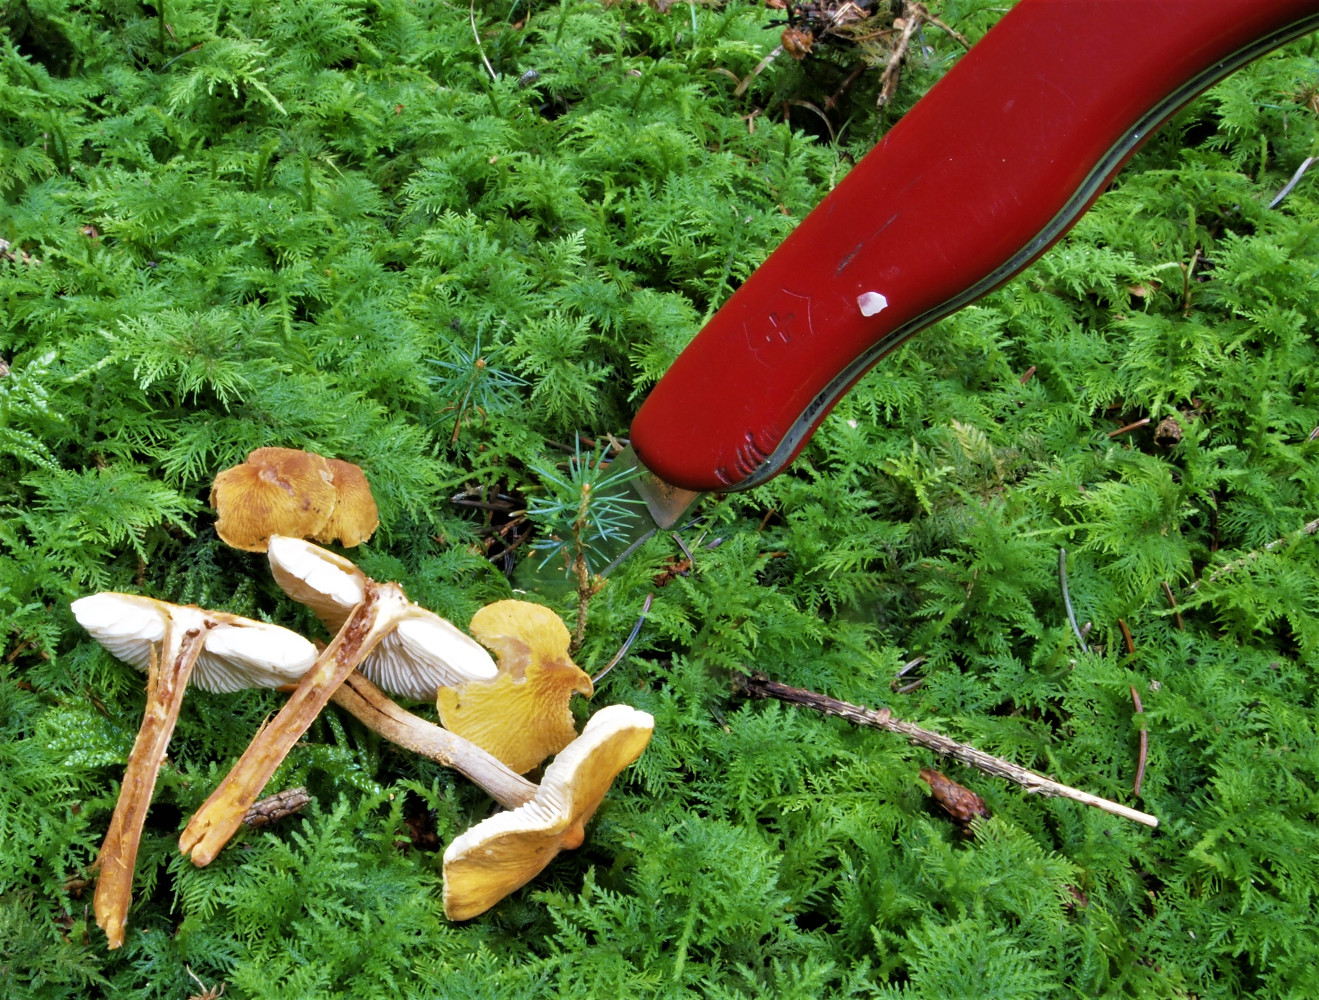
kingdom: Fungi
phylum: Basidiomycota
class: Agaricomycetes
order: Agaricales
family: Tricholomataceae
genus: Cystoderma
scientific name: Cystoderma amianthinum
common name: okkergul grynhat
